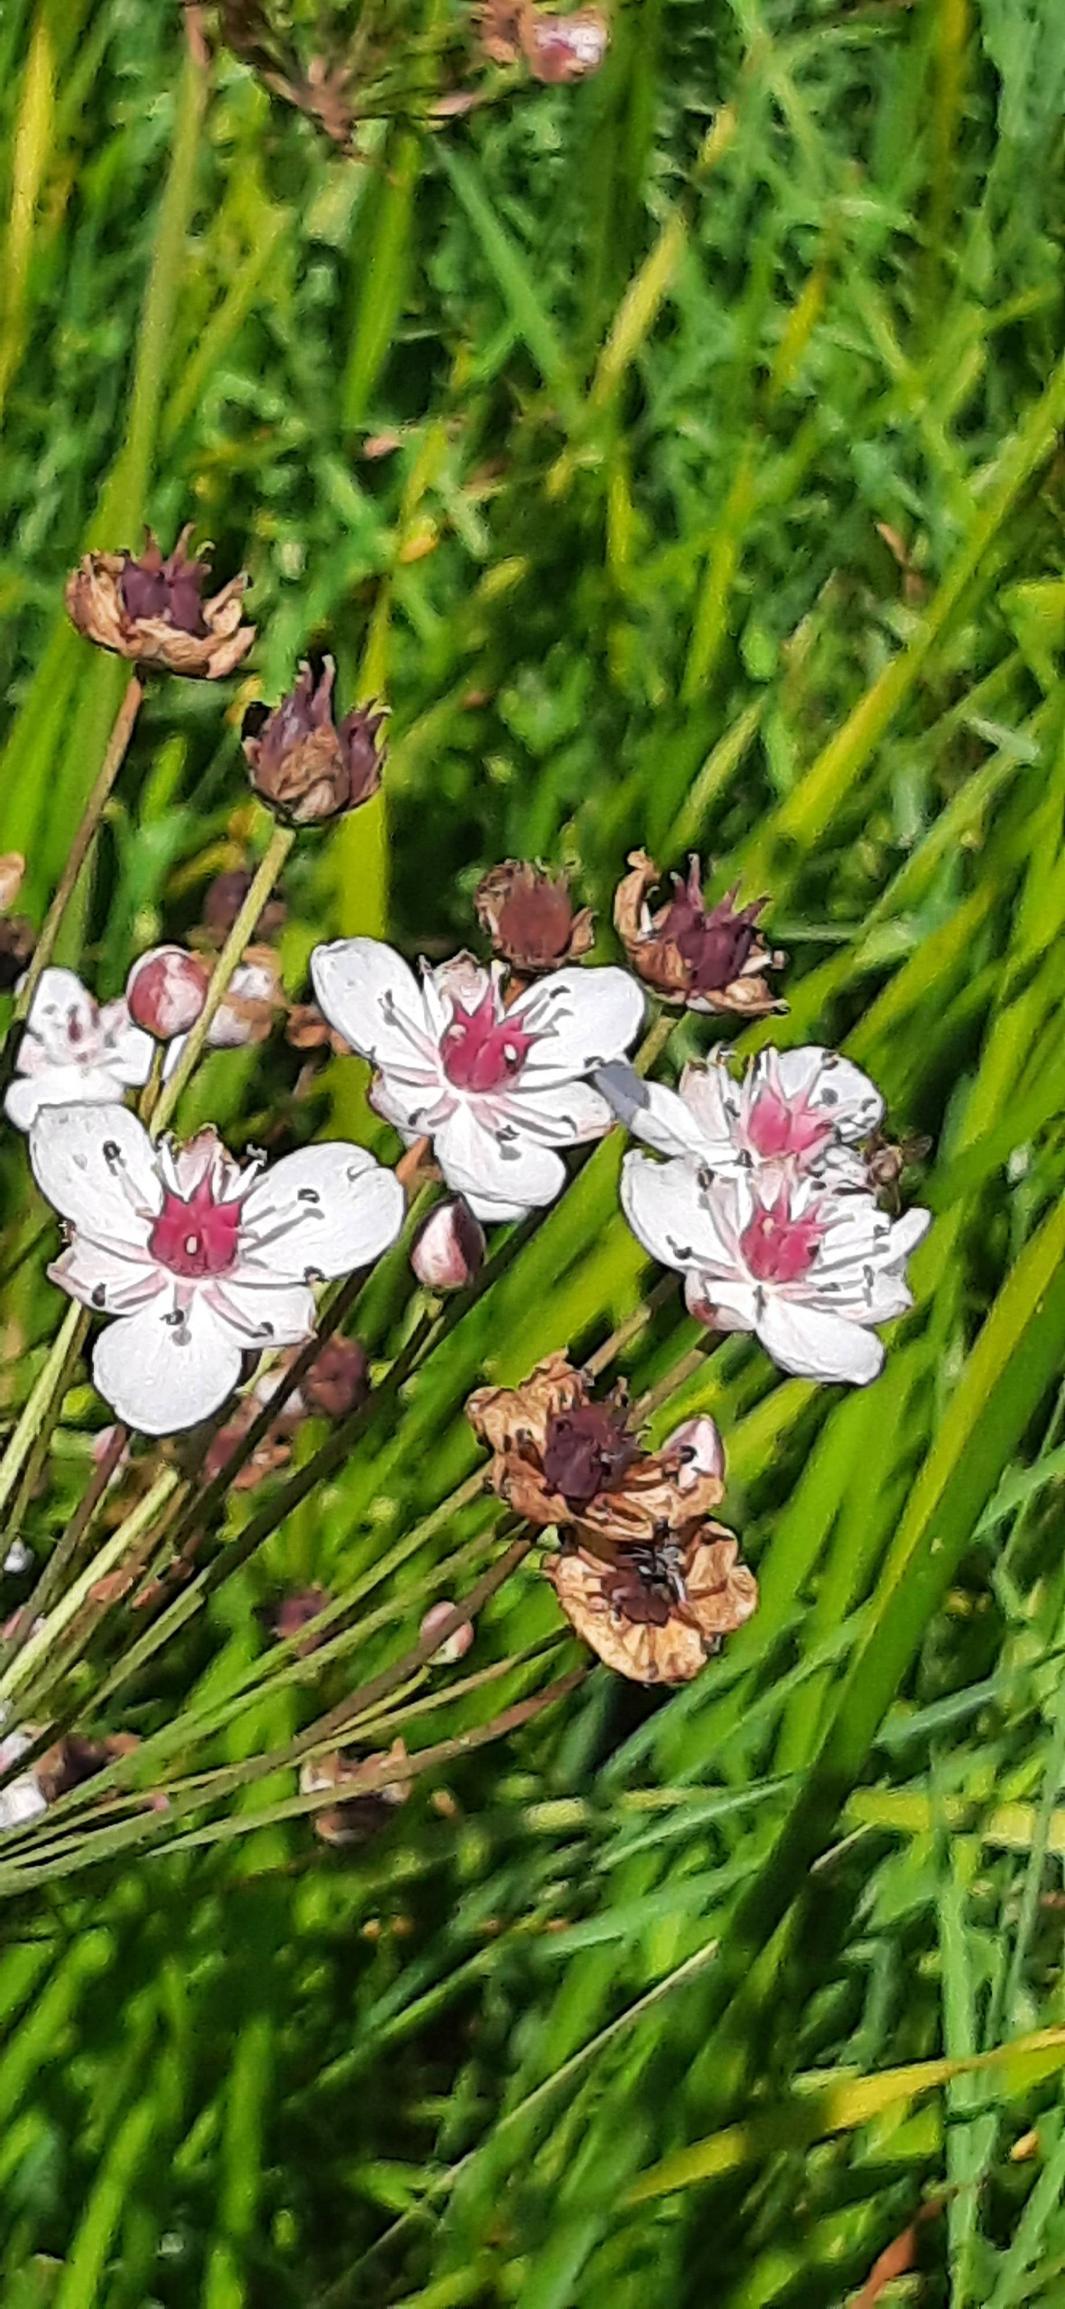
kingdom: Plantae
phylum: Tracheophyta
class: Liliopsida
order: Alismatales
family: Butomaceae
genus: Butomus
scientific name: Butomus umbellatus
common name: Brudelys
